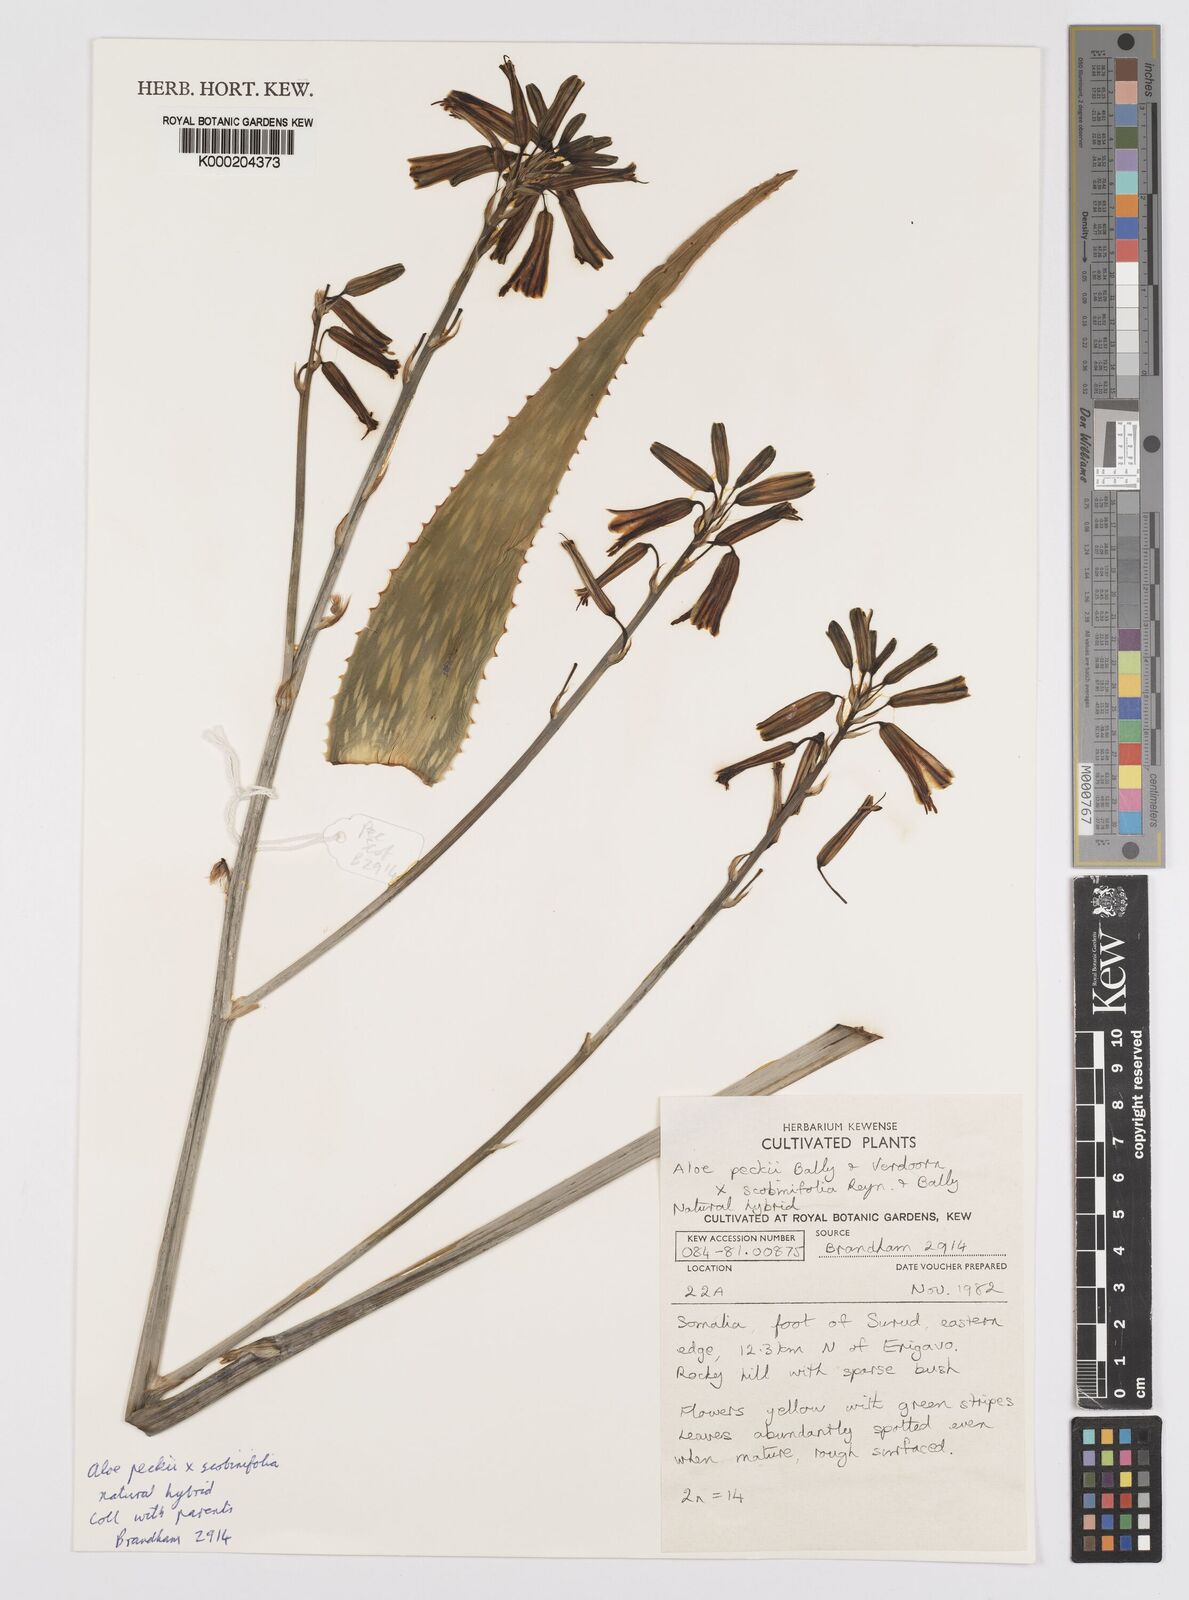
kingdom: Plantae
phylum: Tracheophyta
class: Liliopsida
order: Asparagales
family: Asphodelaceae
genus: Aloe
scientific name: Aloe
